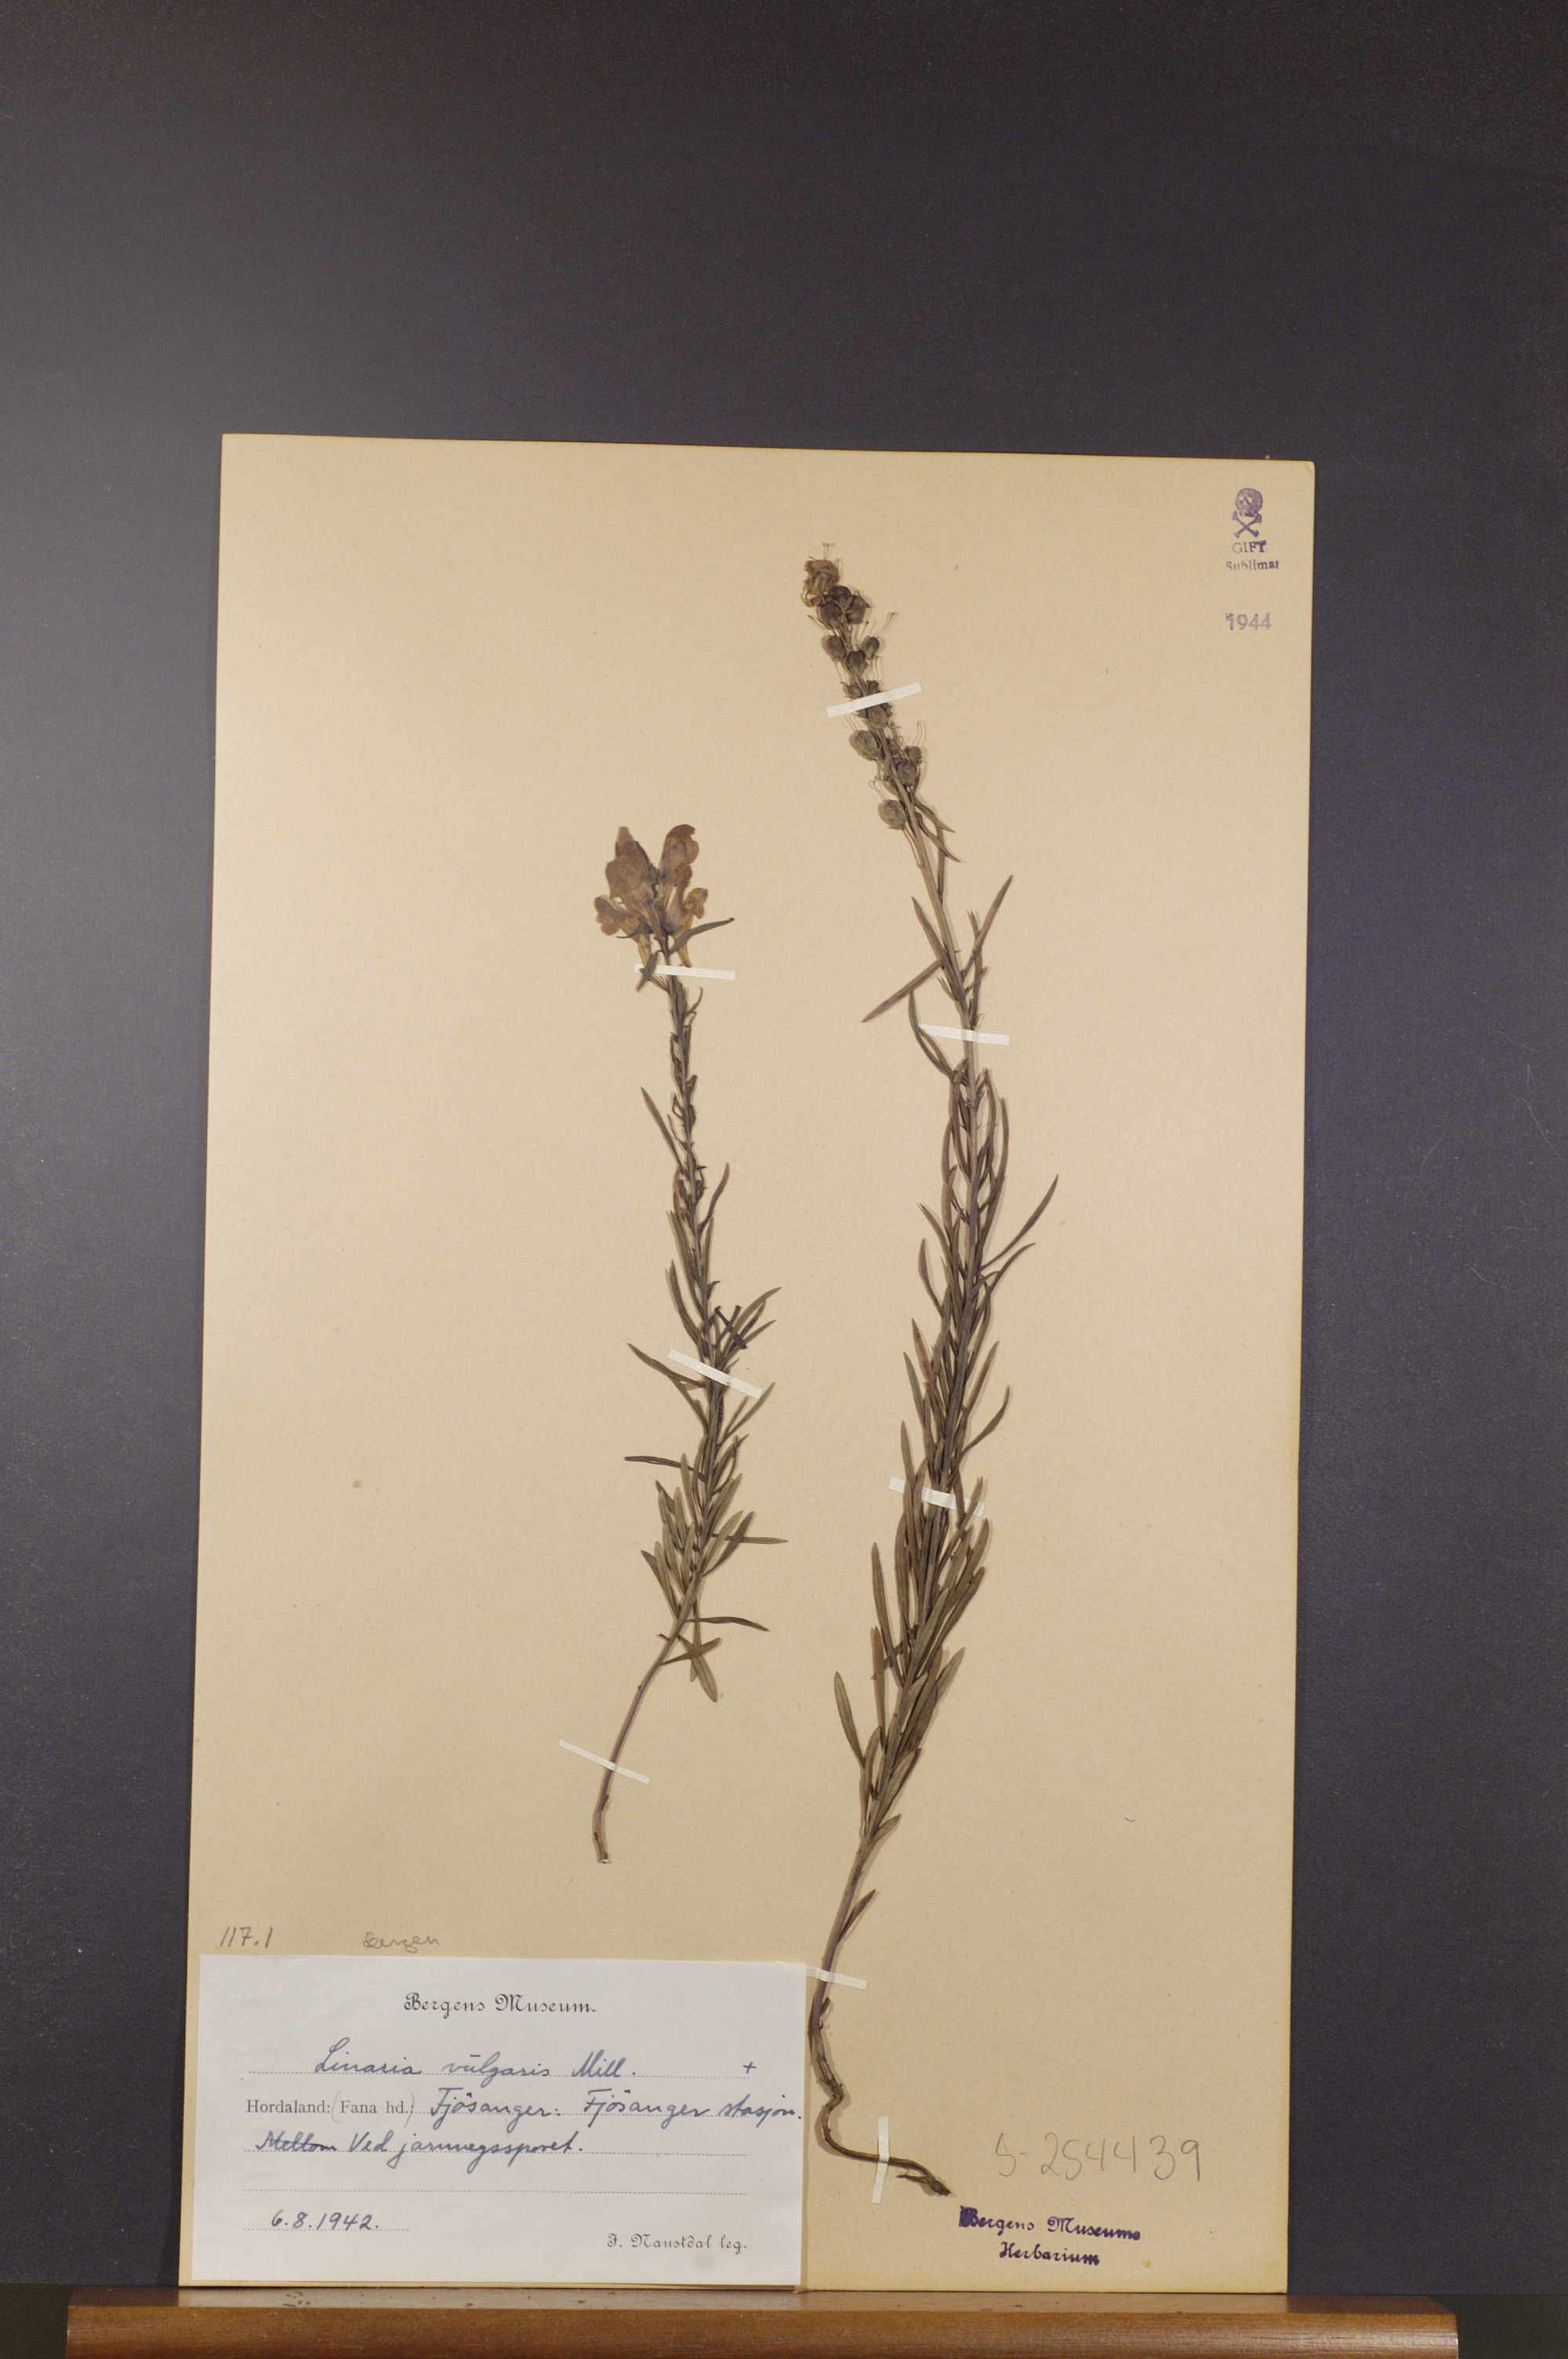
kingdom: Plantae
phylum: Tracheophyta
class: Magnoliopsida
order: Lamiales
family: Plantaginaceae
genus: Linaria
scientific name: Linaria vulgaris
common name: Butter and eggs
